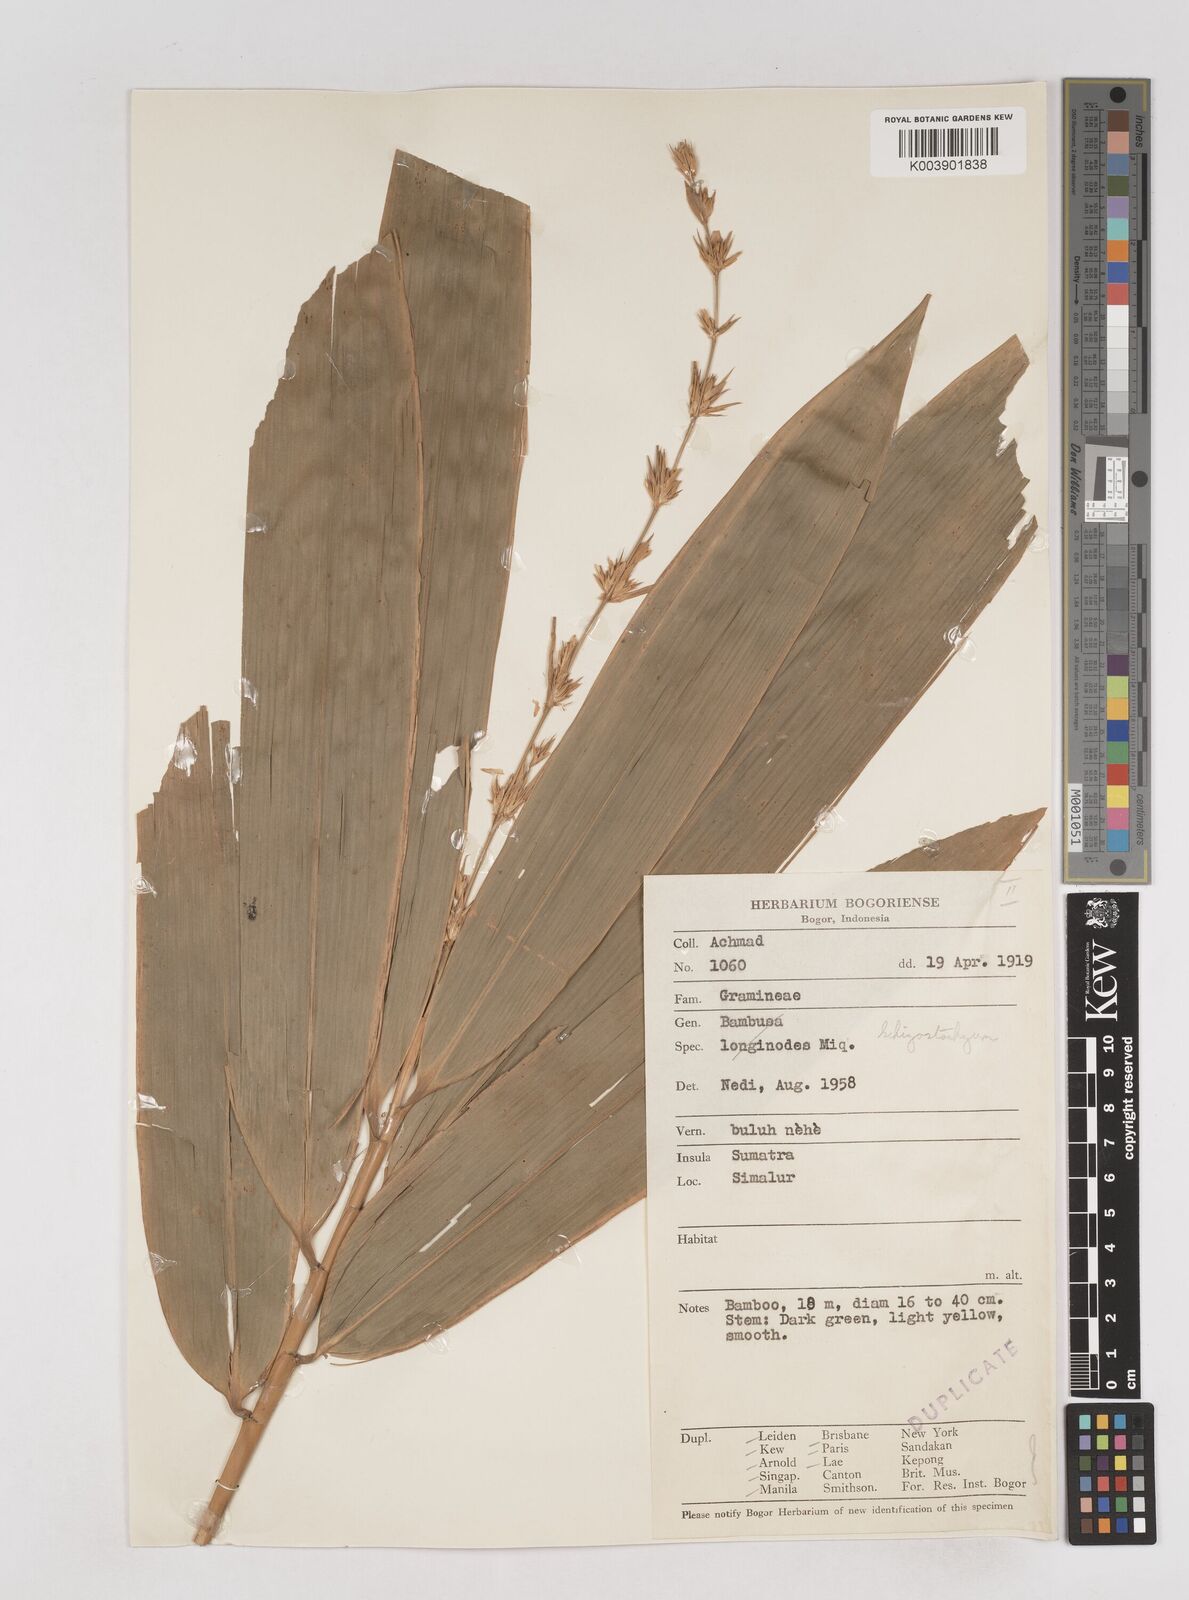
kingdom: Plantae
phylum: Tracheophyta
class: Liliopsida
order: Poales
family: Poaceae
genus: Schizostachyum
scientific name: Schizostachyum brachycladum
